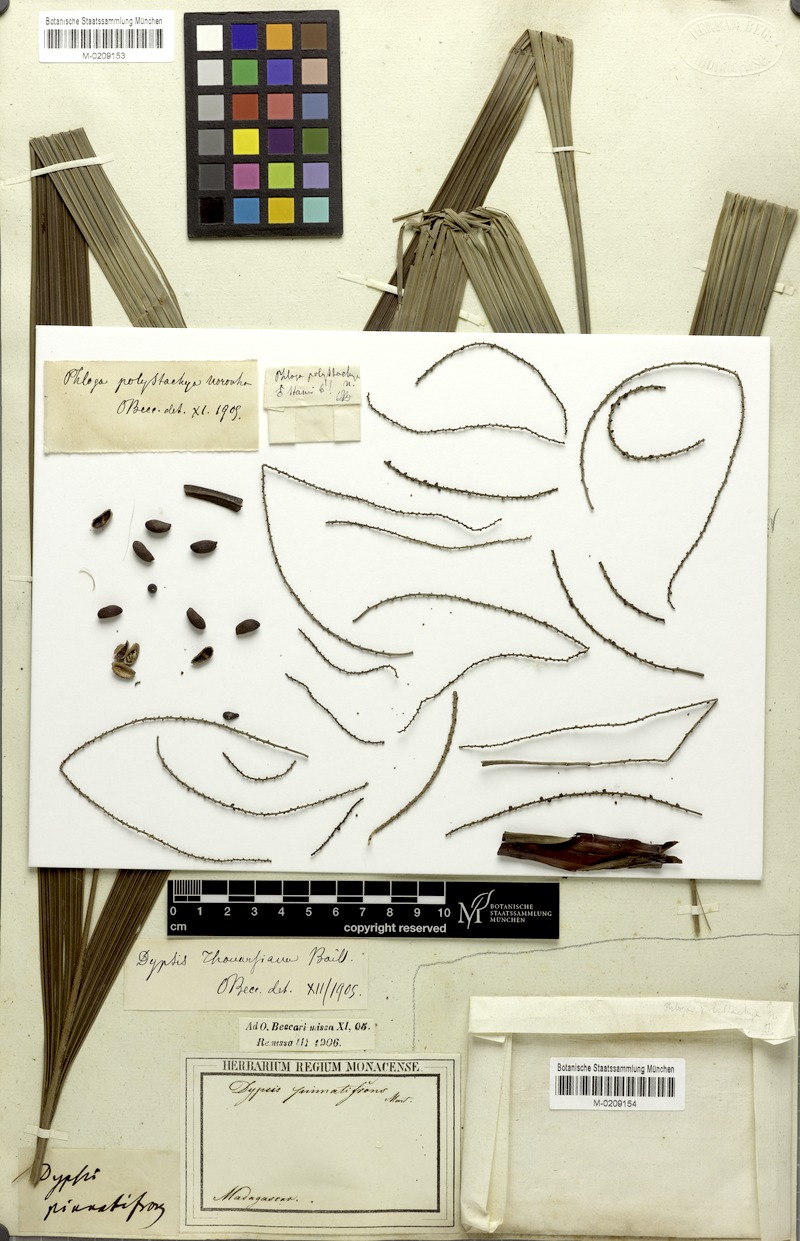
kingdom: Plantae
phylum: Tracheophyta
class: Liliopsida
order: Arecales
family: Arecaceae
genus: Dypsis
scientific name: Dypsis nodifera
